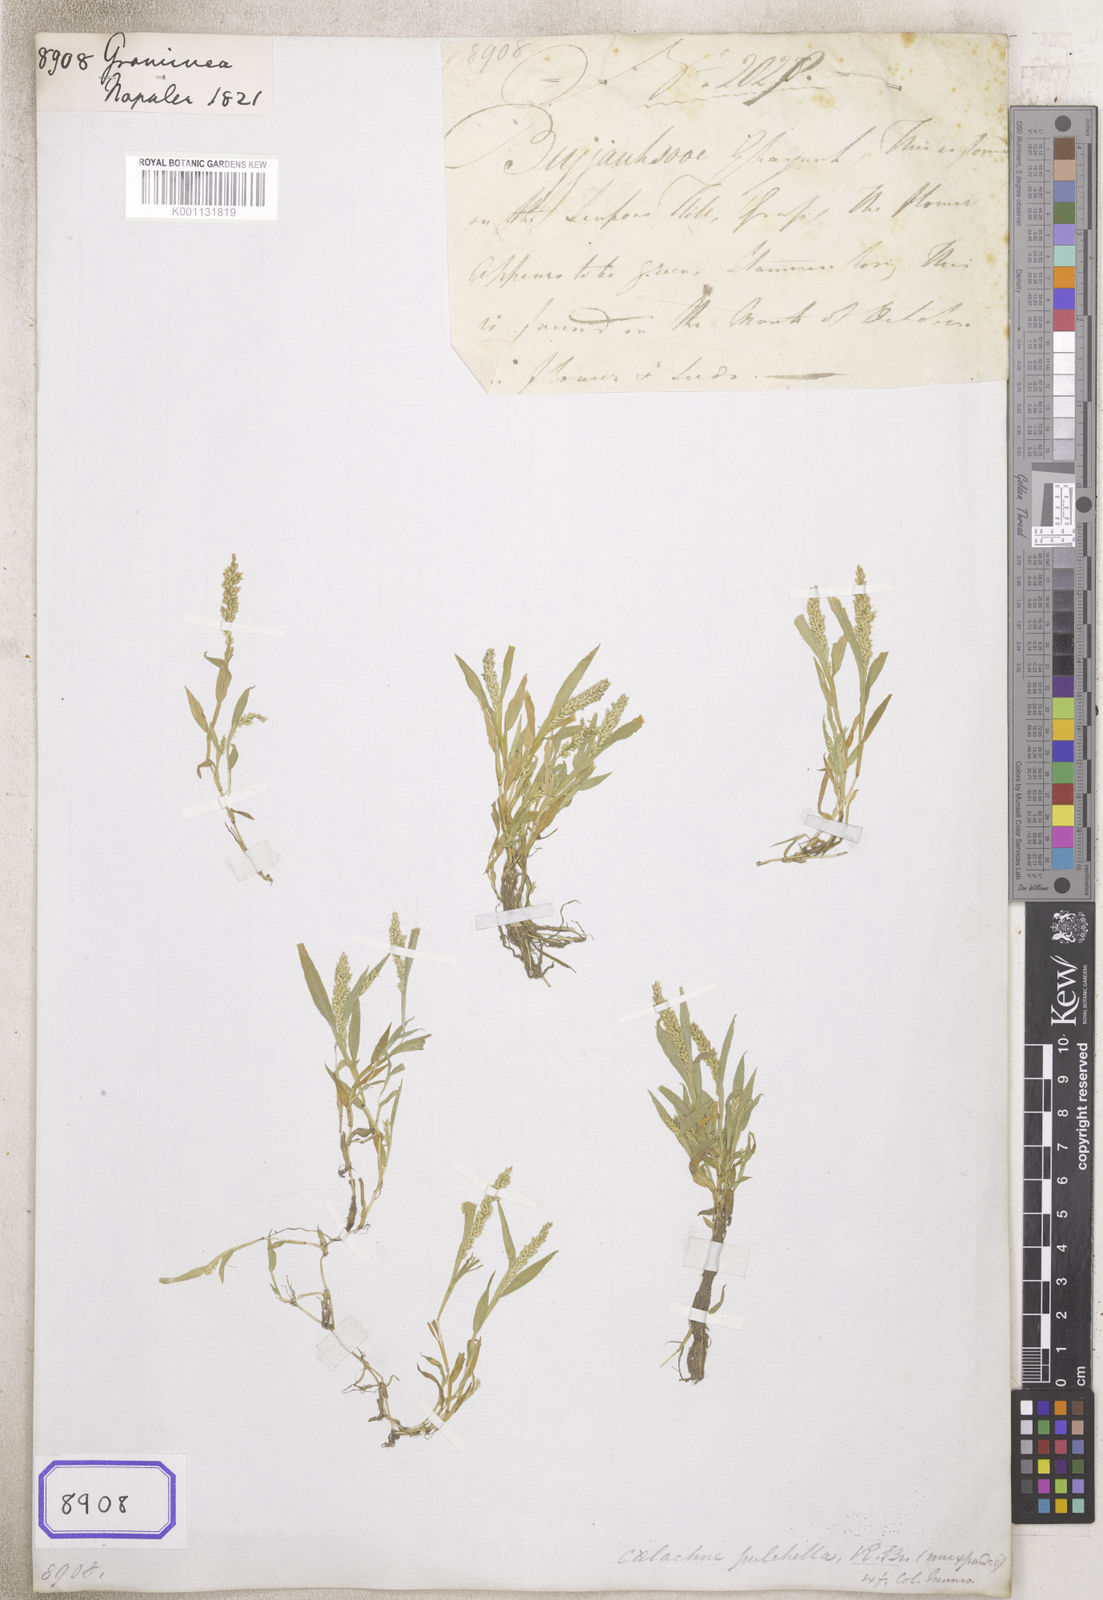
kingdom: Plantae
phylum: Tracheophyta
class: Liliopsida
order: Poales
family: Poaceae
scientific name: Poaceae
